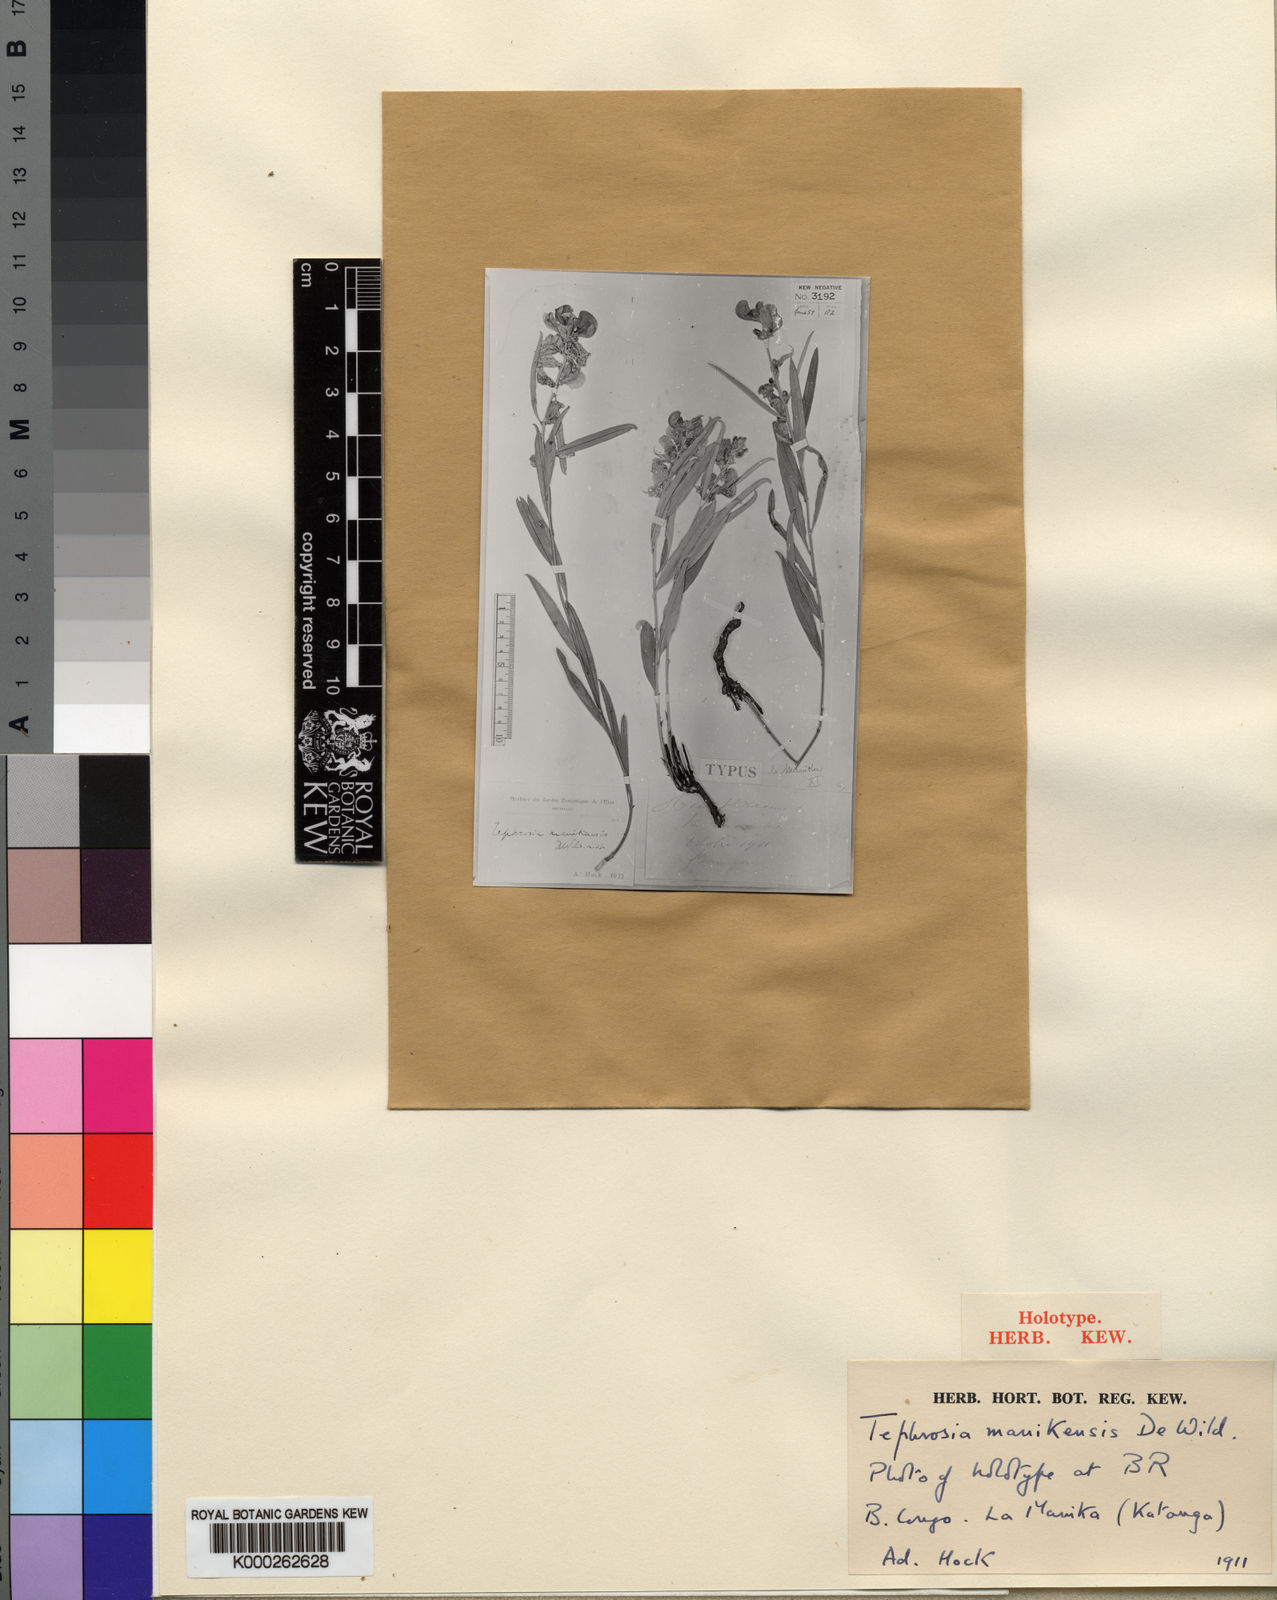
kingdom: Plantae
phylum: Tracheophyta
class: Magnoliopsida
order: Fabales
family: Fabaceae
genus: Tephrosia
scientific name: Tephrosia manikensis
